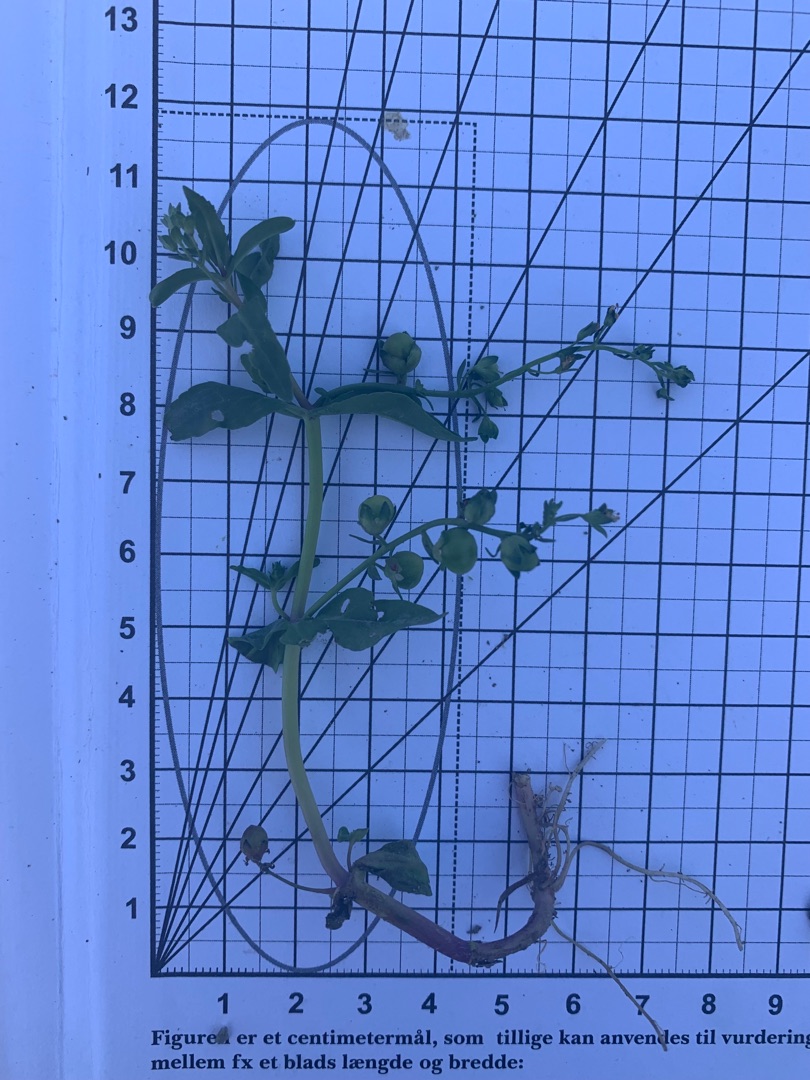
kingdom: Plantae
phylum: Tracheophyta
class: Magnoliopsida
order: Lamiales
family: Plantaginaceae
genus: Veronica
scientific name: Veronica catenata
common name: Vand-ærenpris
